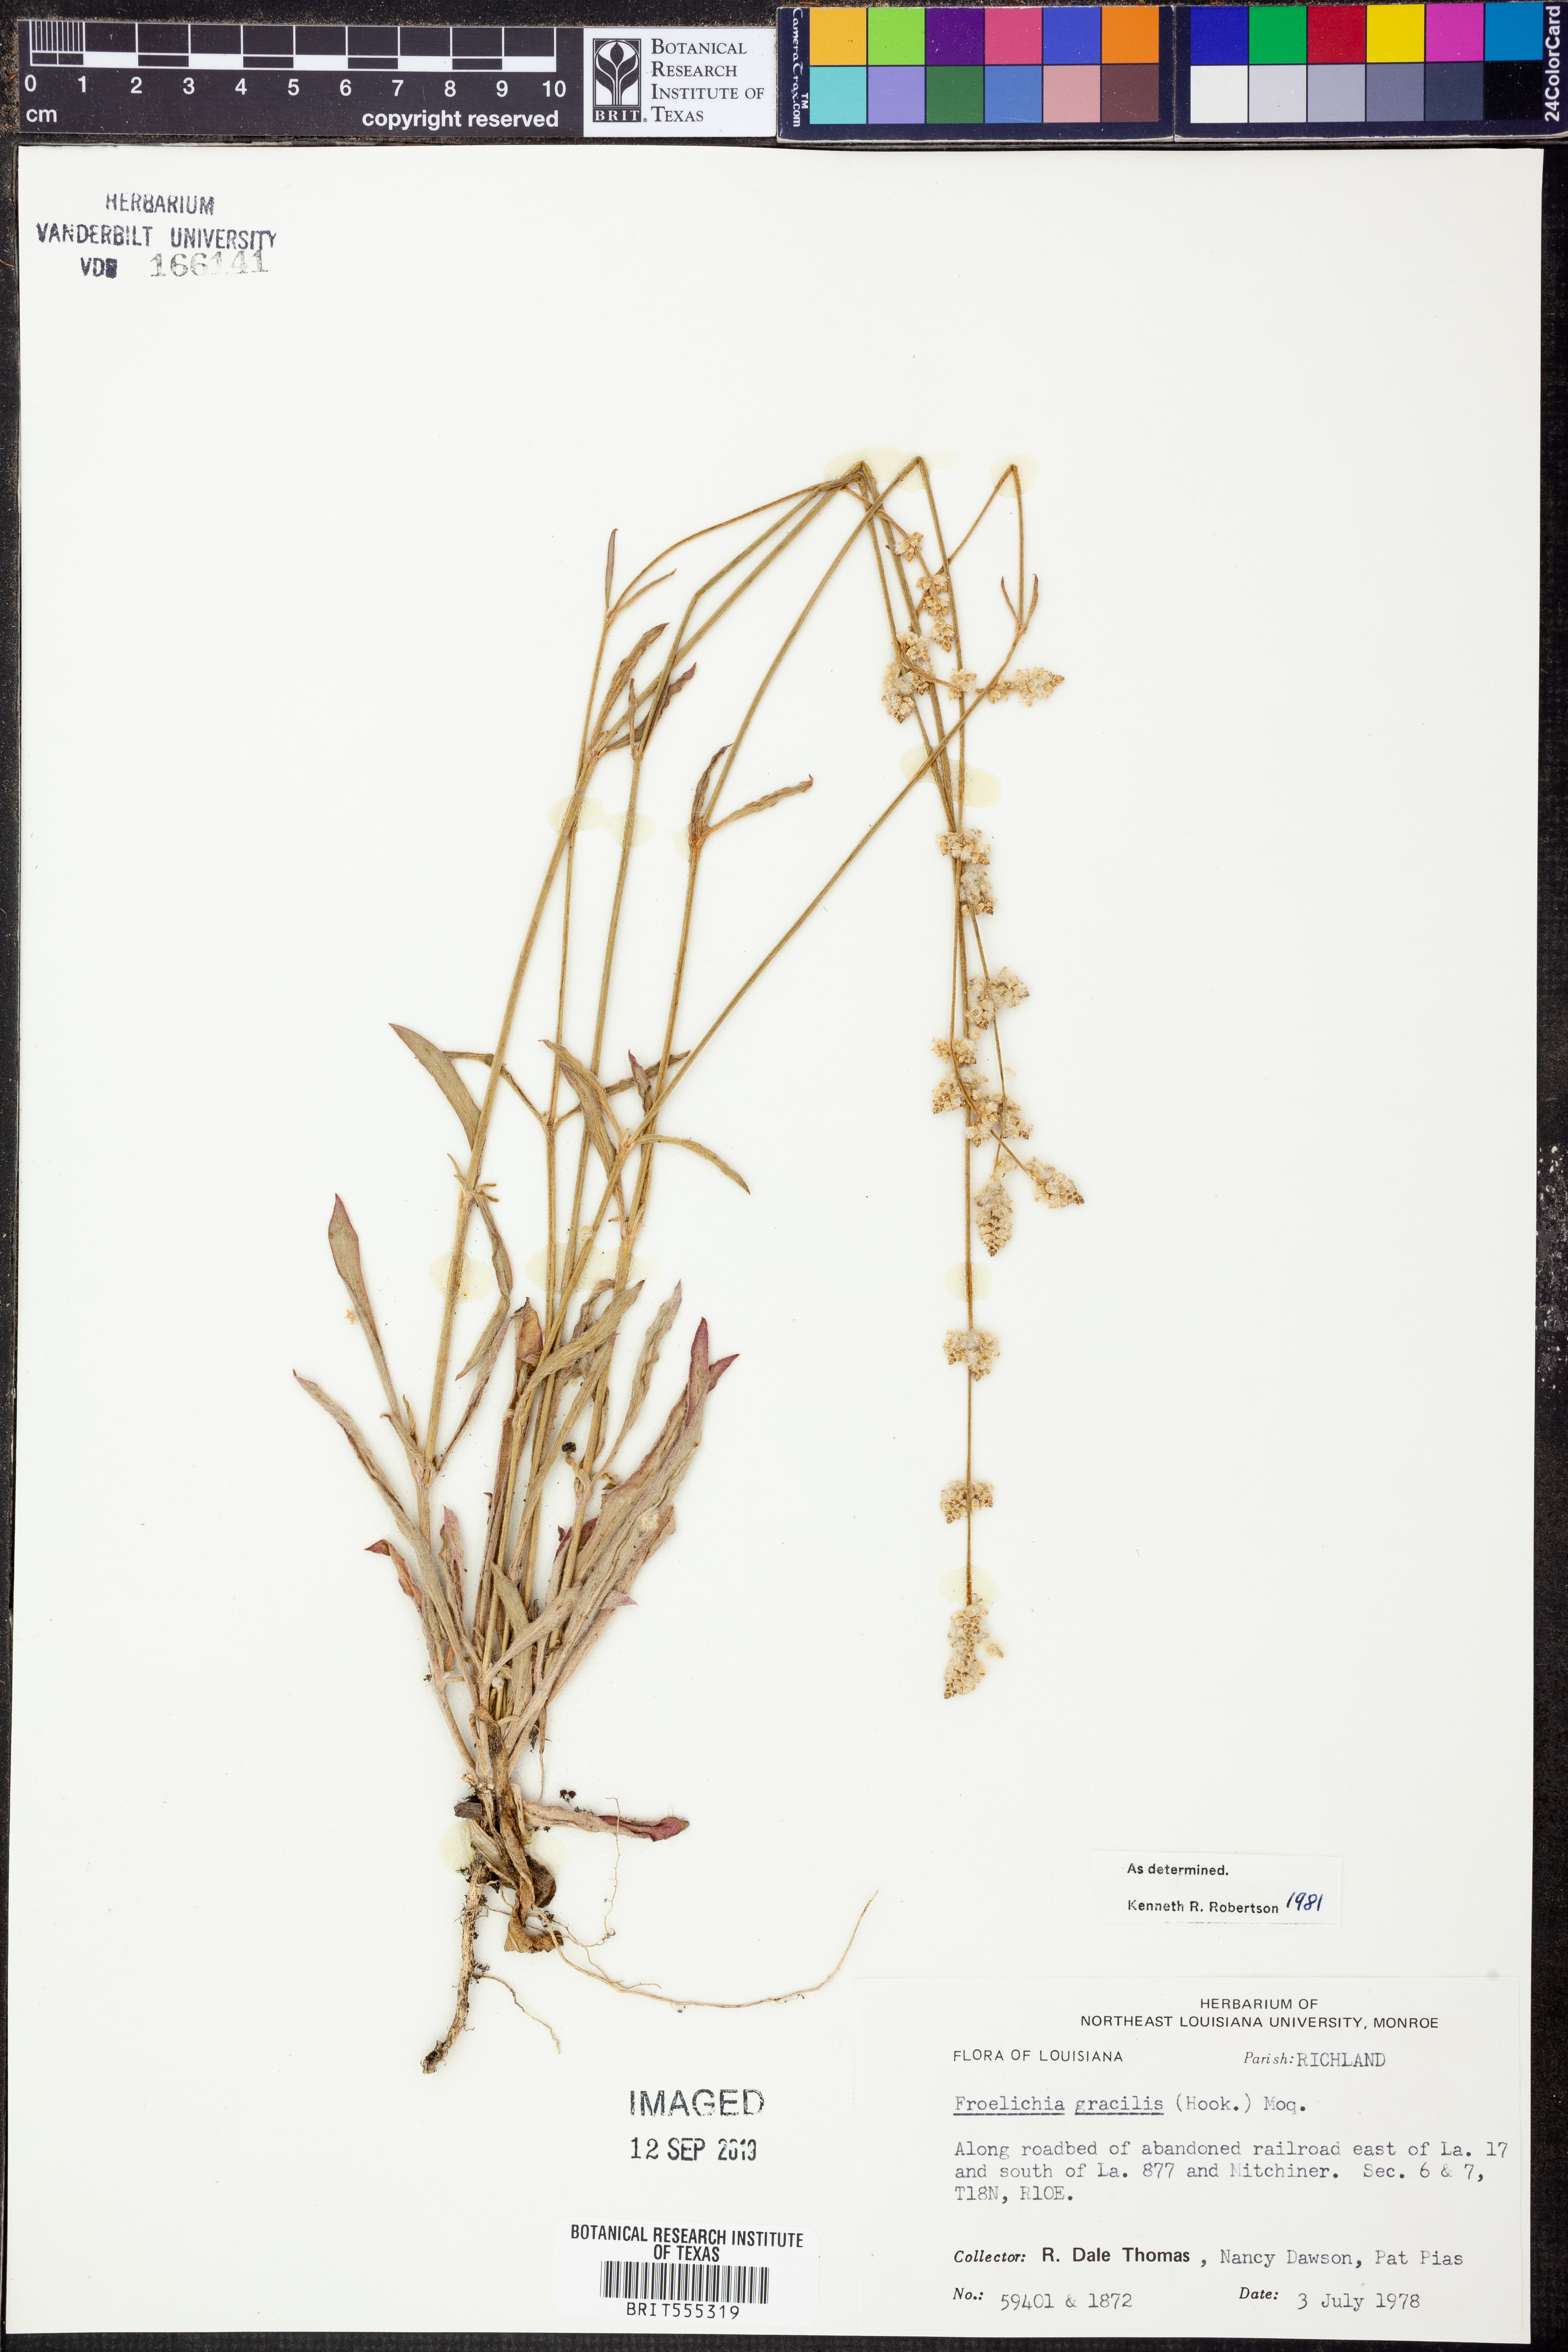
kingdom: Plantae
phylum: Tracheophyta
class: Magnoliopsida
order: Caryophyllales
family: Amaranthaceae
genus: Froelichia
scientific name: Froelichia gracilis
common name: Slender cottonweed
